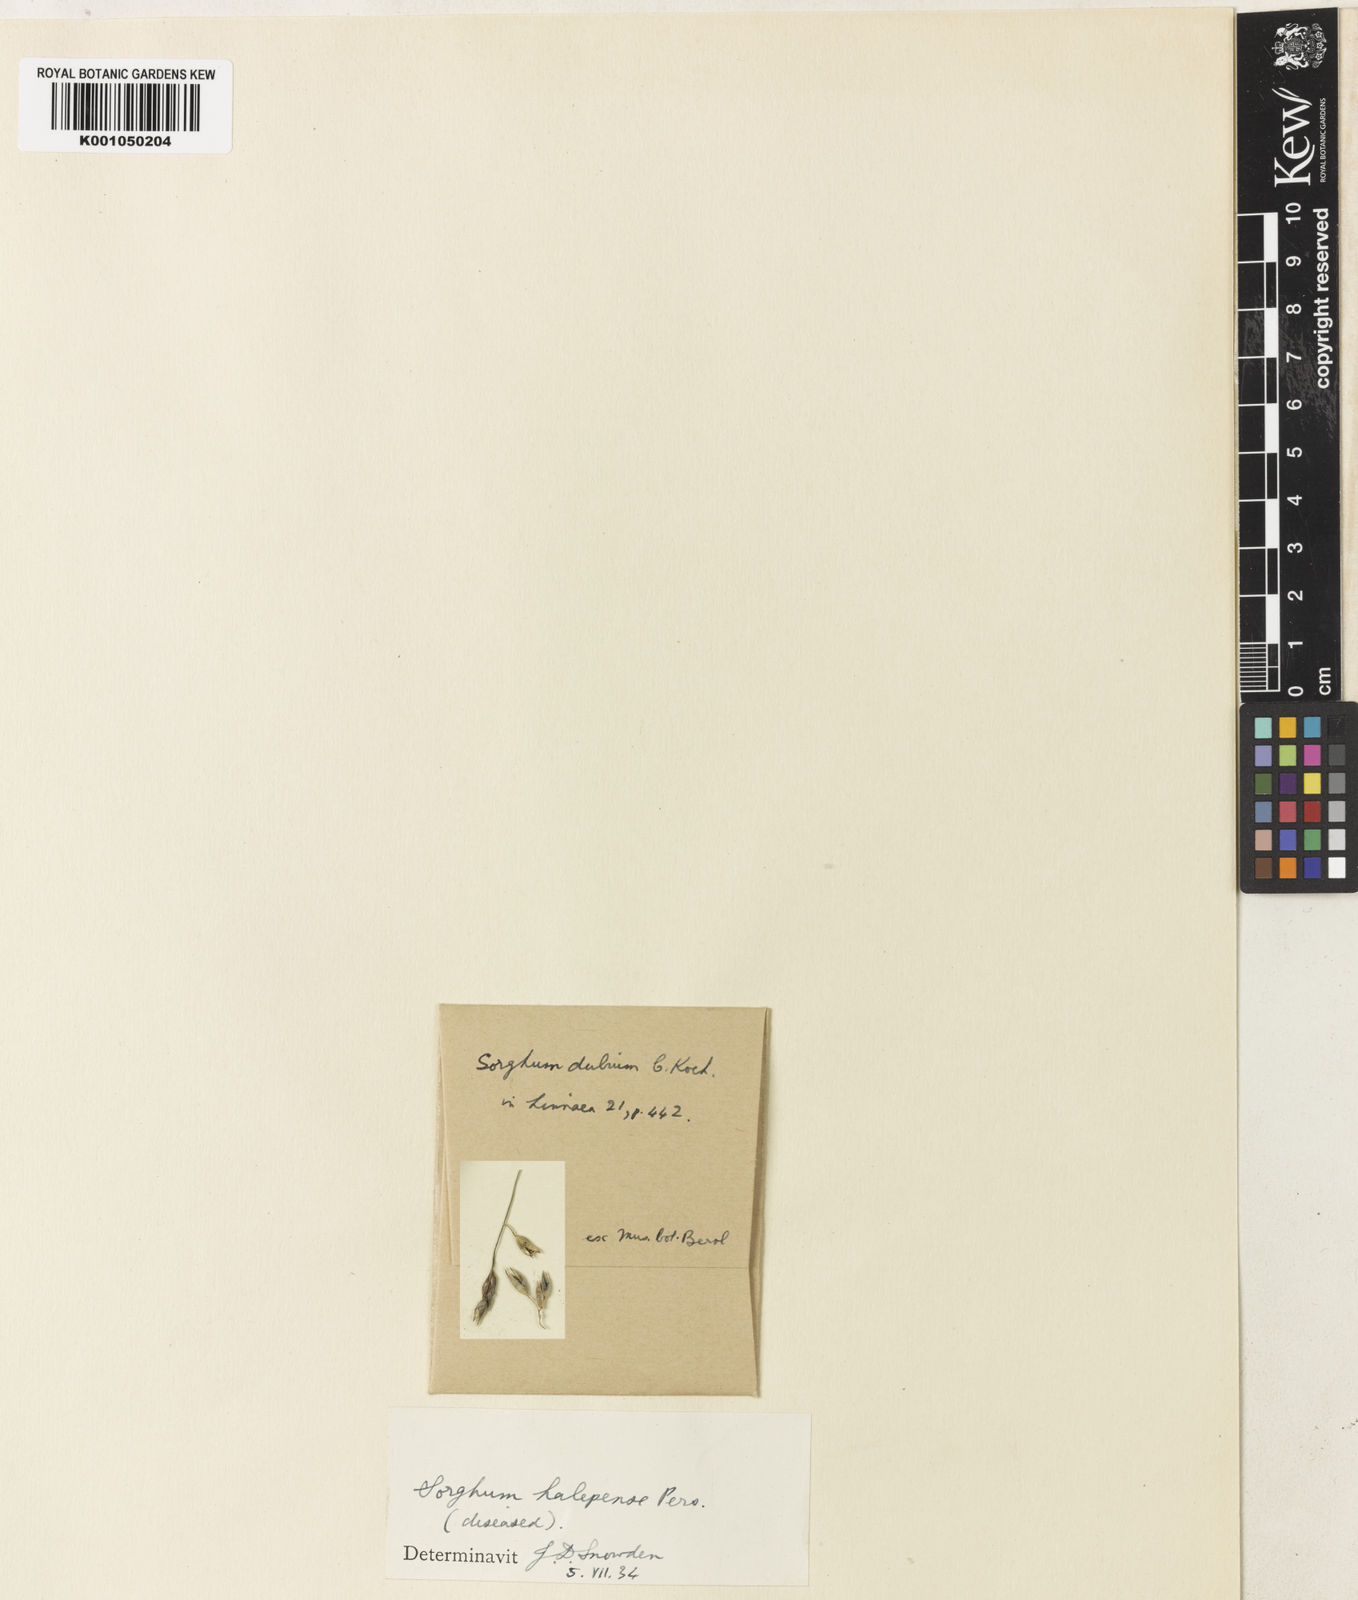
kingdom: Plantae
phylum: Tracheophyta
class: Liliopsida
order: Poales
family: Poaceae
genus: Sorghum
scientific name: Sorghum halepense
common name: Johnson-grass
